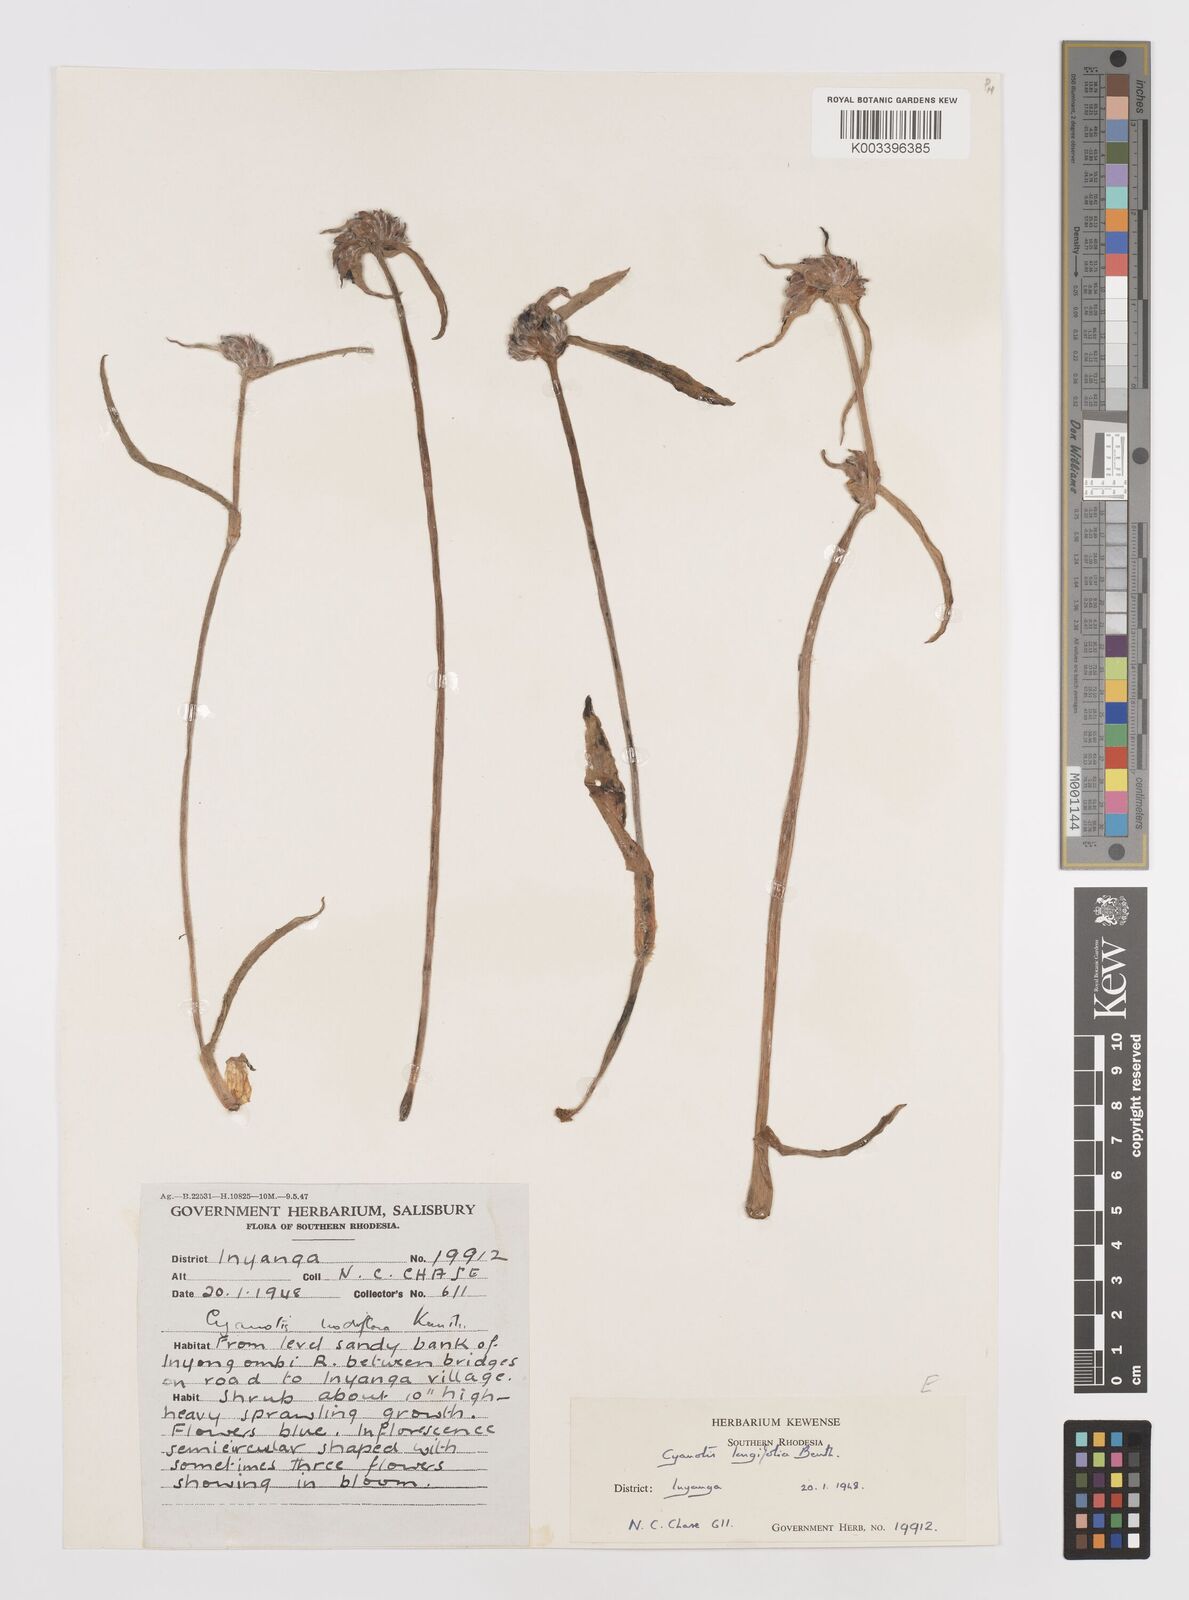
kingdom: Plantae
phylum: Tracheophyta
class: Liliopsida
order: Commelinales
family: Commelinaceae
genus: Cyanotis
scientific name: Cyanotis longifolia
